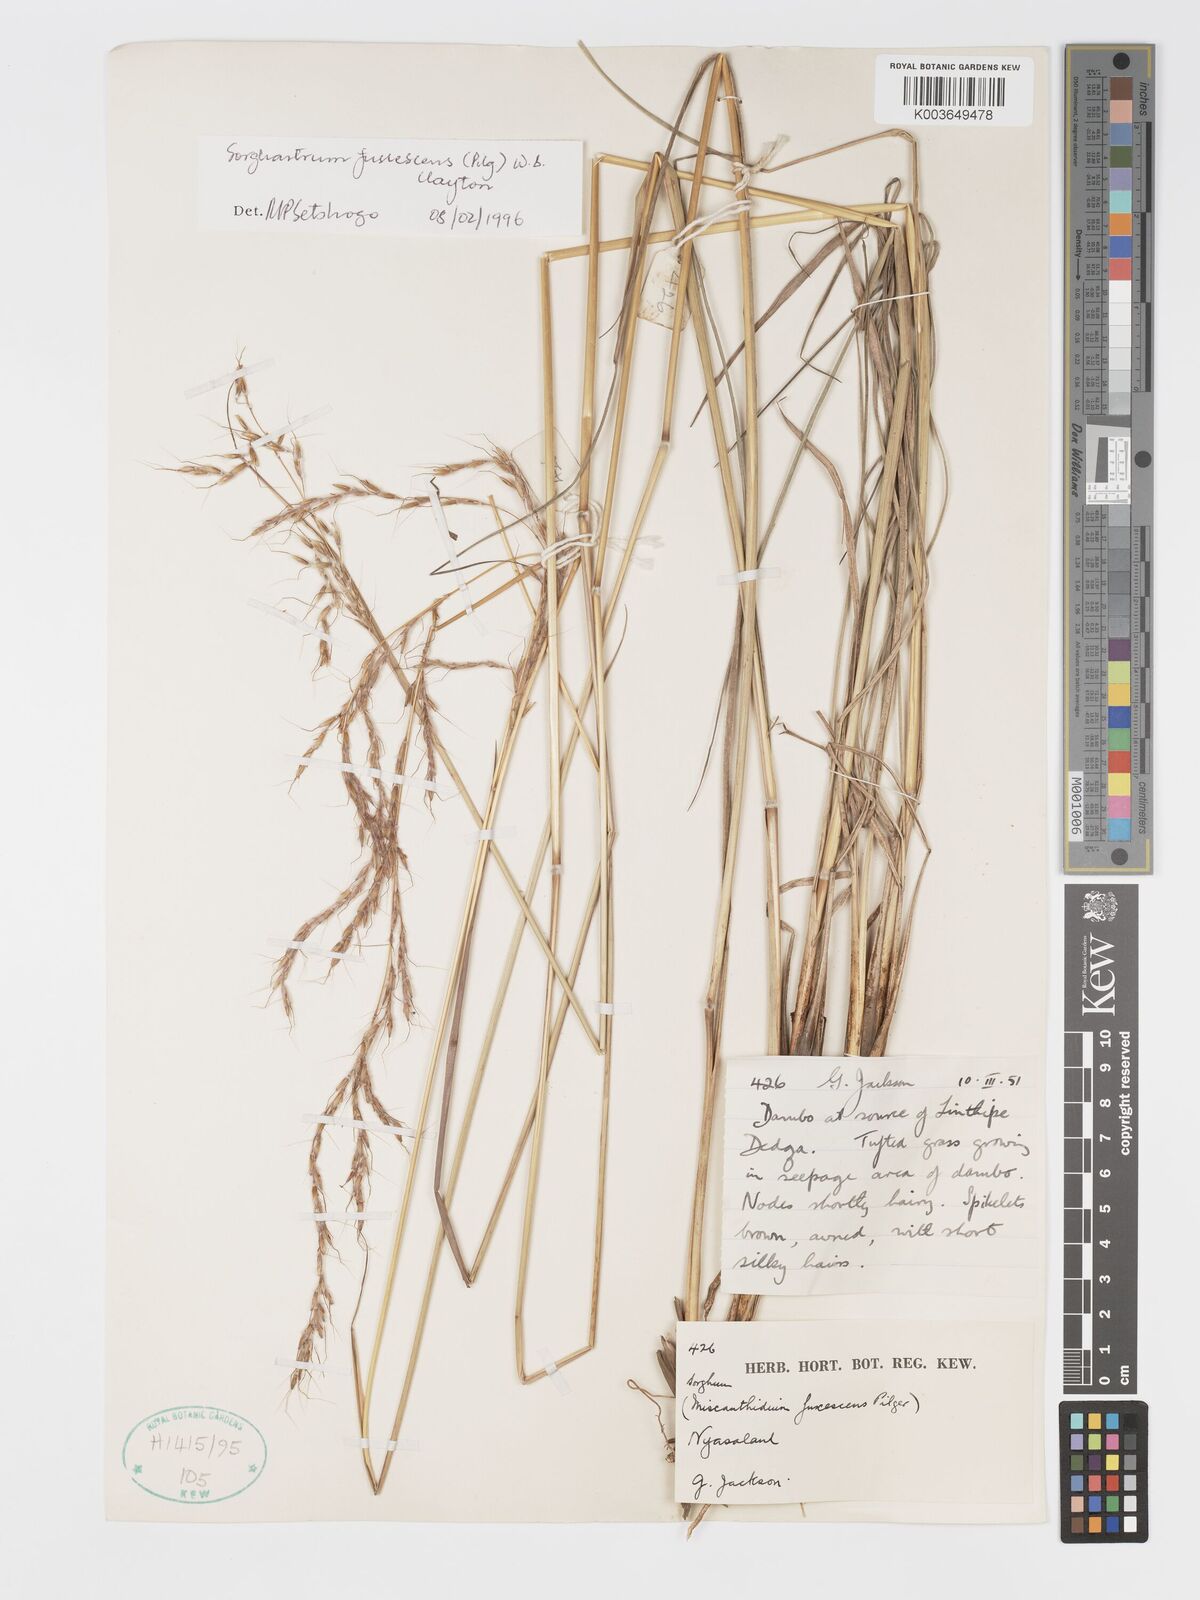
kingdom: Plantae
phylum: Tracheophyta
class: Liliopsida
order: Poales
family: Poaceae
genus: Sorghastrum
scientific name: Sorghastrum fuscescens
